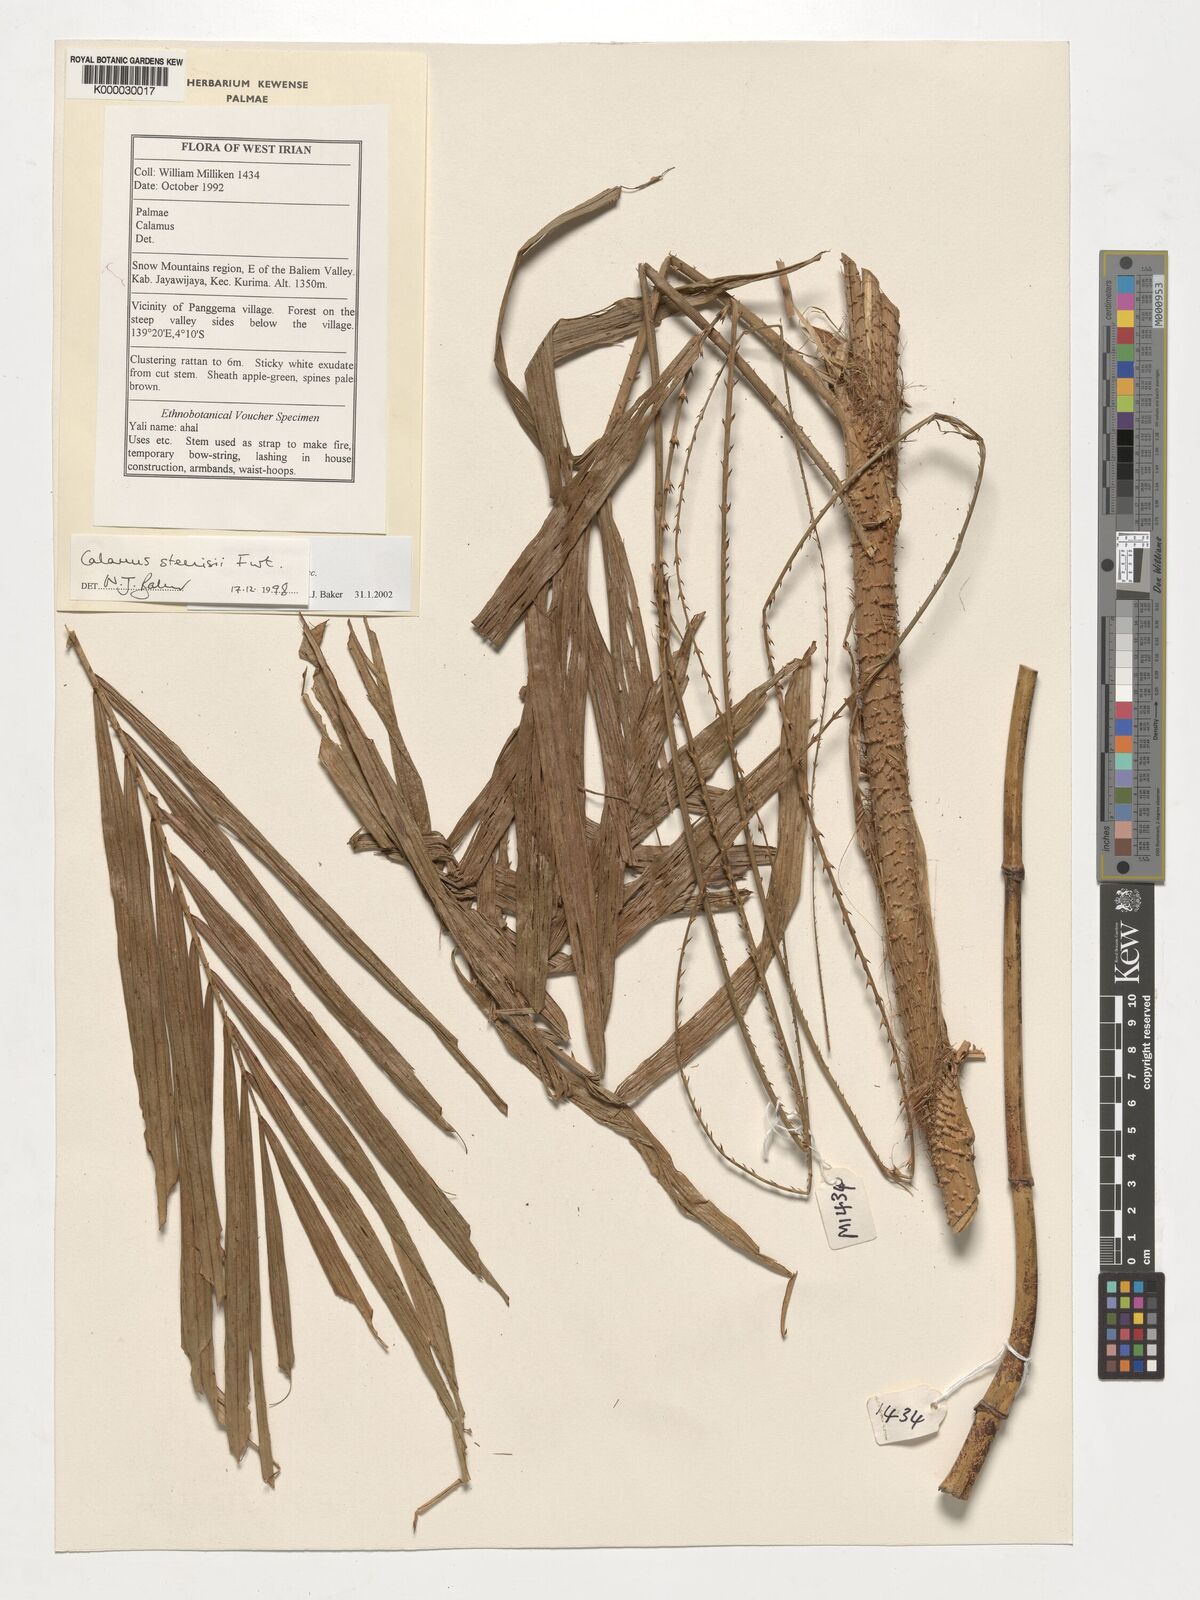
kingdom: Plantae
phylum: Tracheophyta
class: Liliopsida
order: Arecales
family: Arecaceae
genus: Calamus
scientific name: Calamus zebrinus
